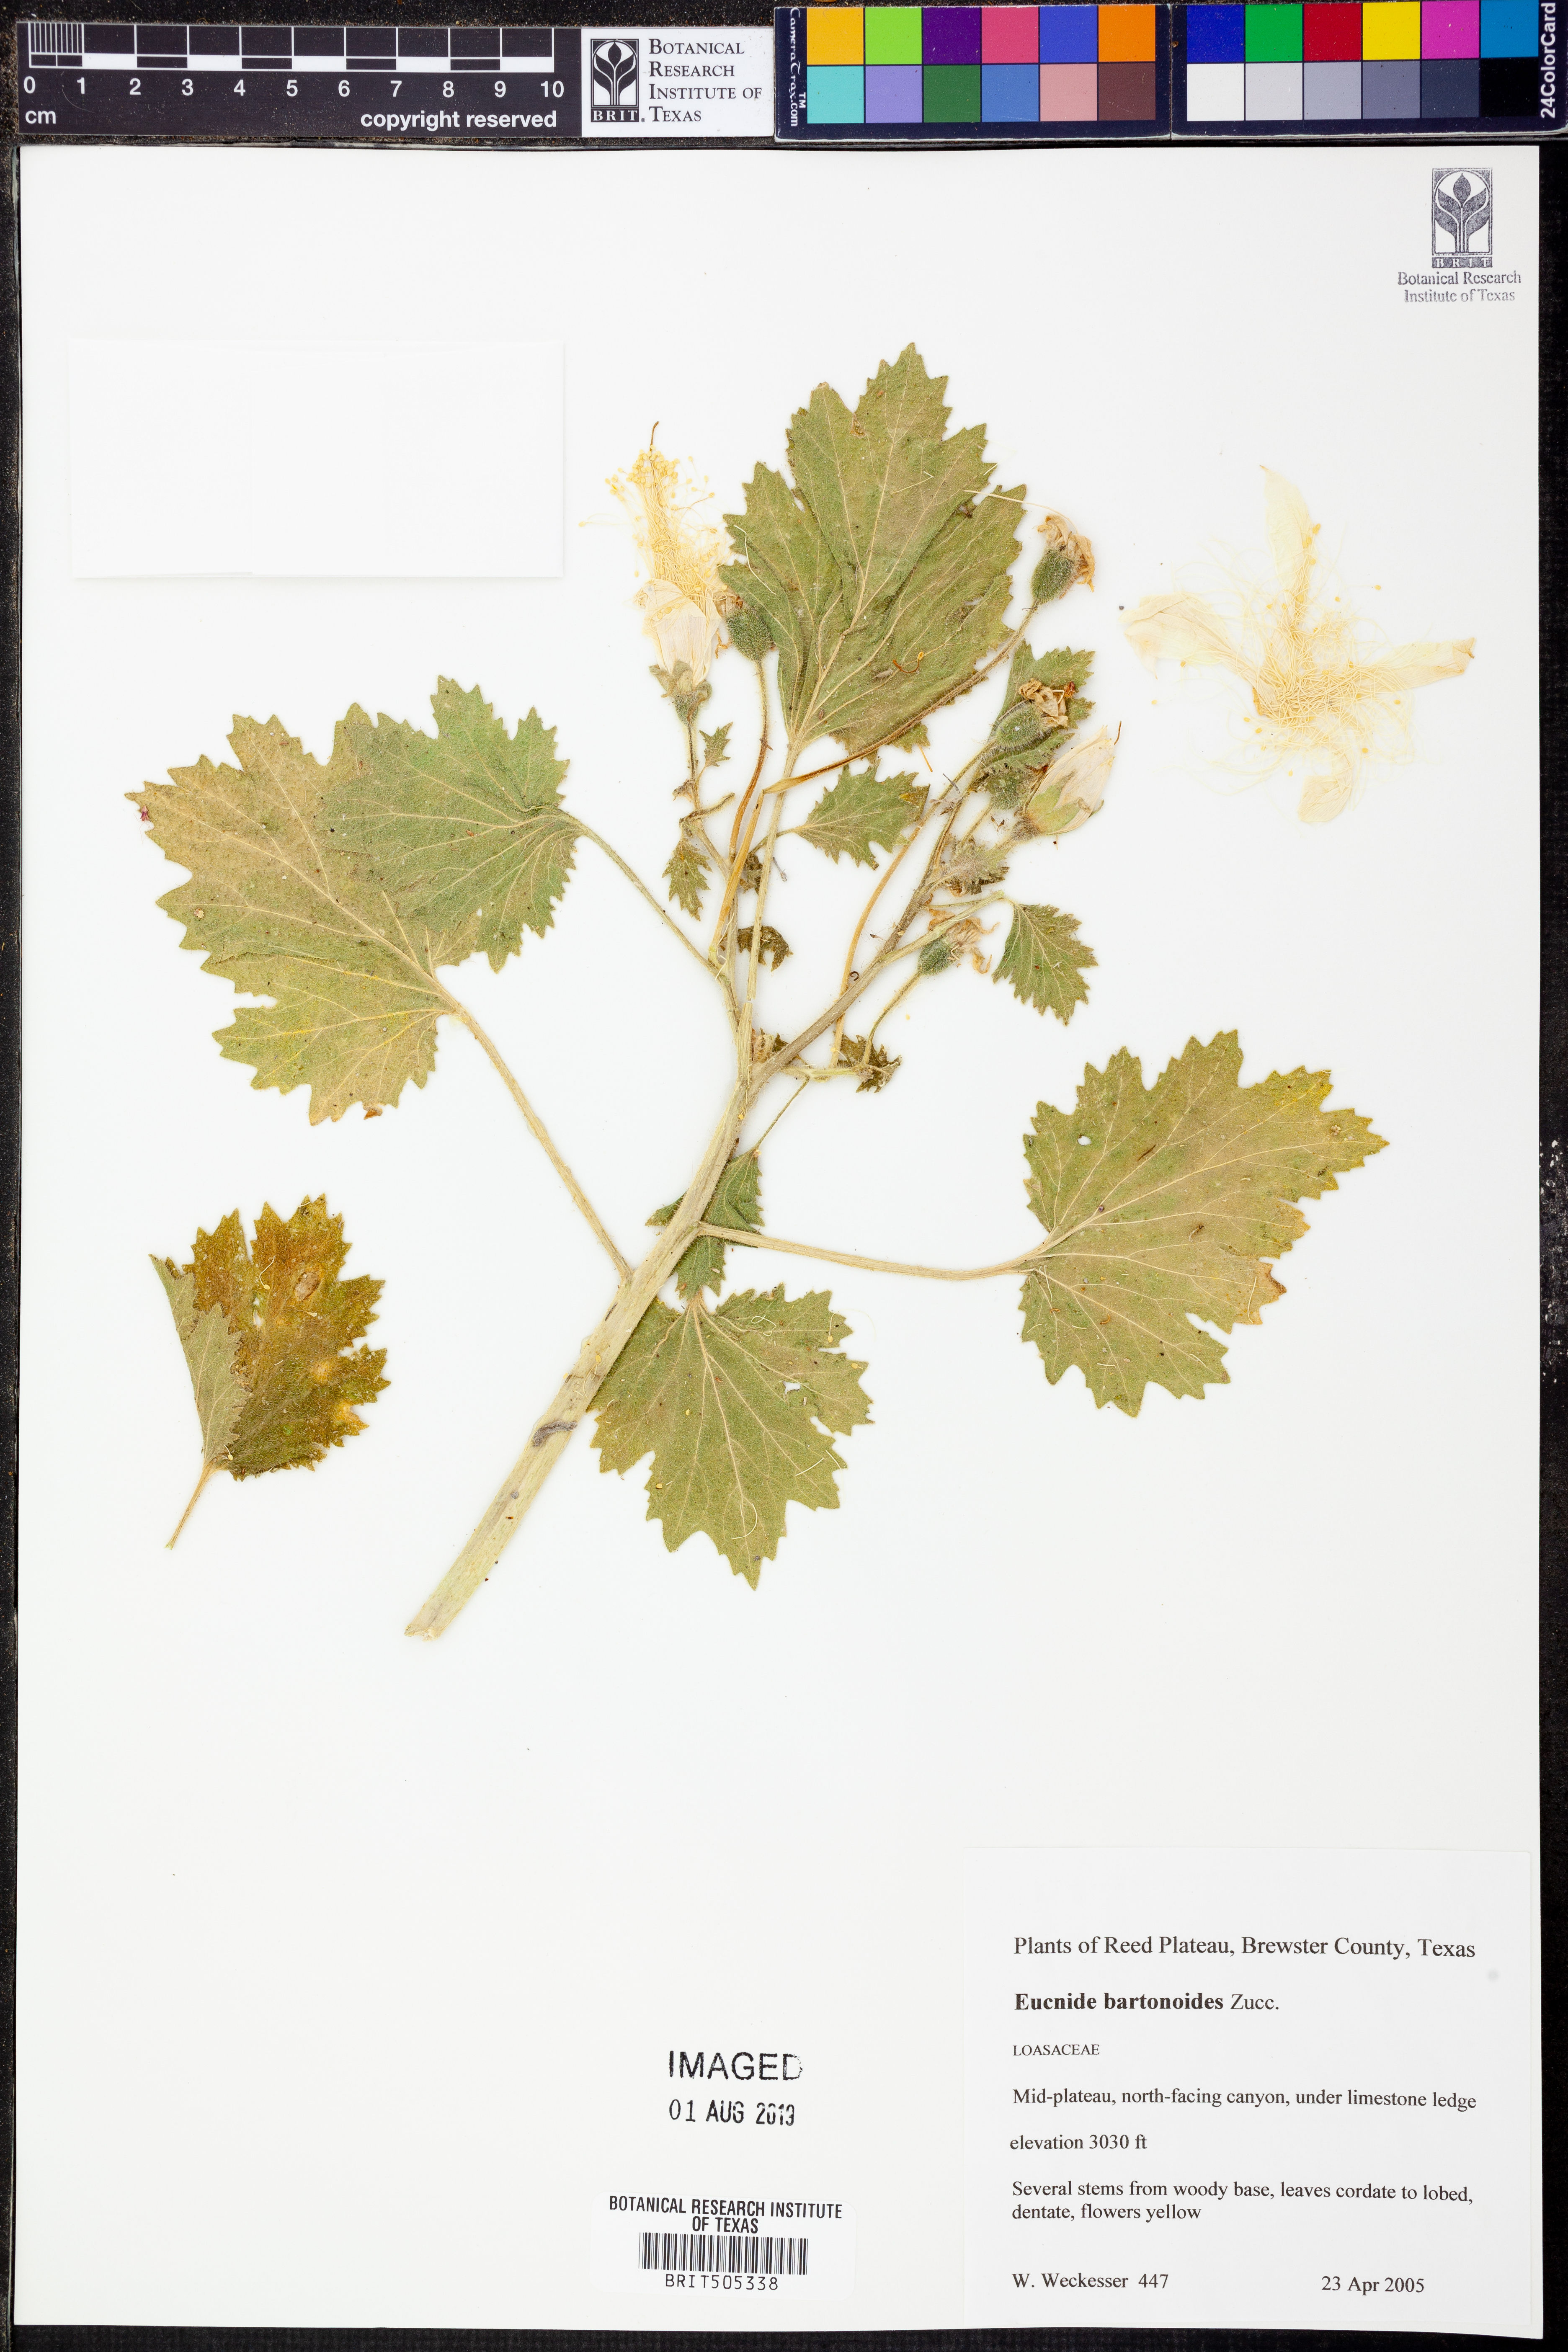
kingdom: Plantae
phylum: Tracheophyta
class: Magnoliopsida
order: Cornales
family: Loasaceae
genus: Eucnide
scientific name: Eucnide bartonioides
